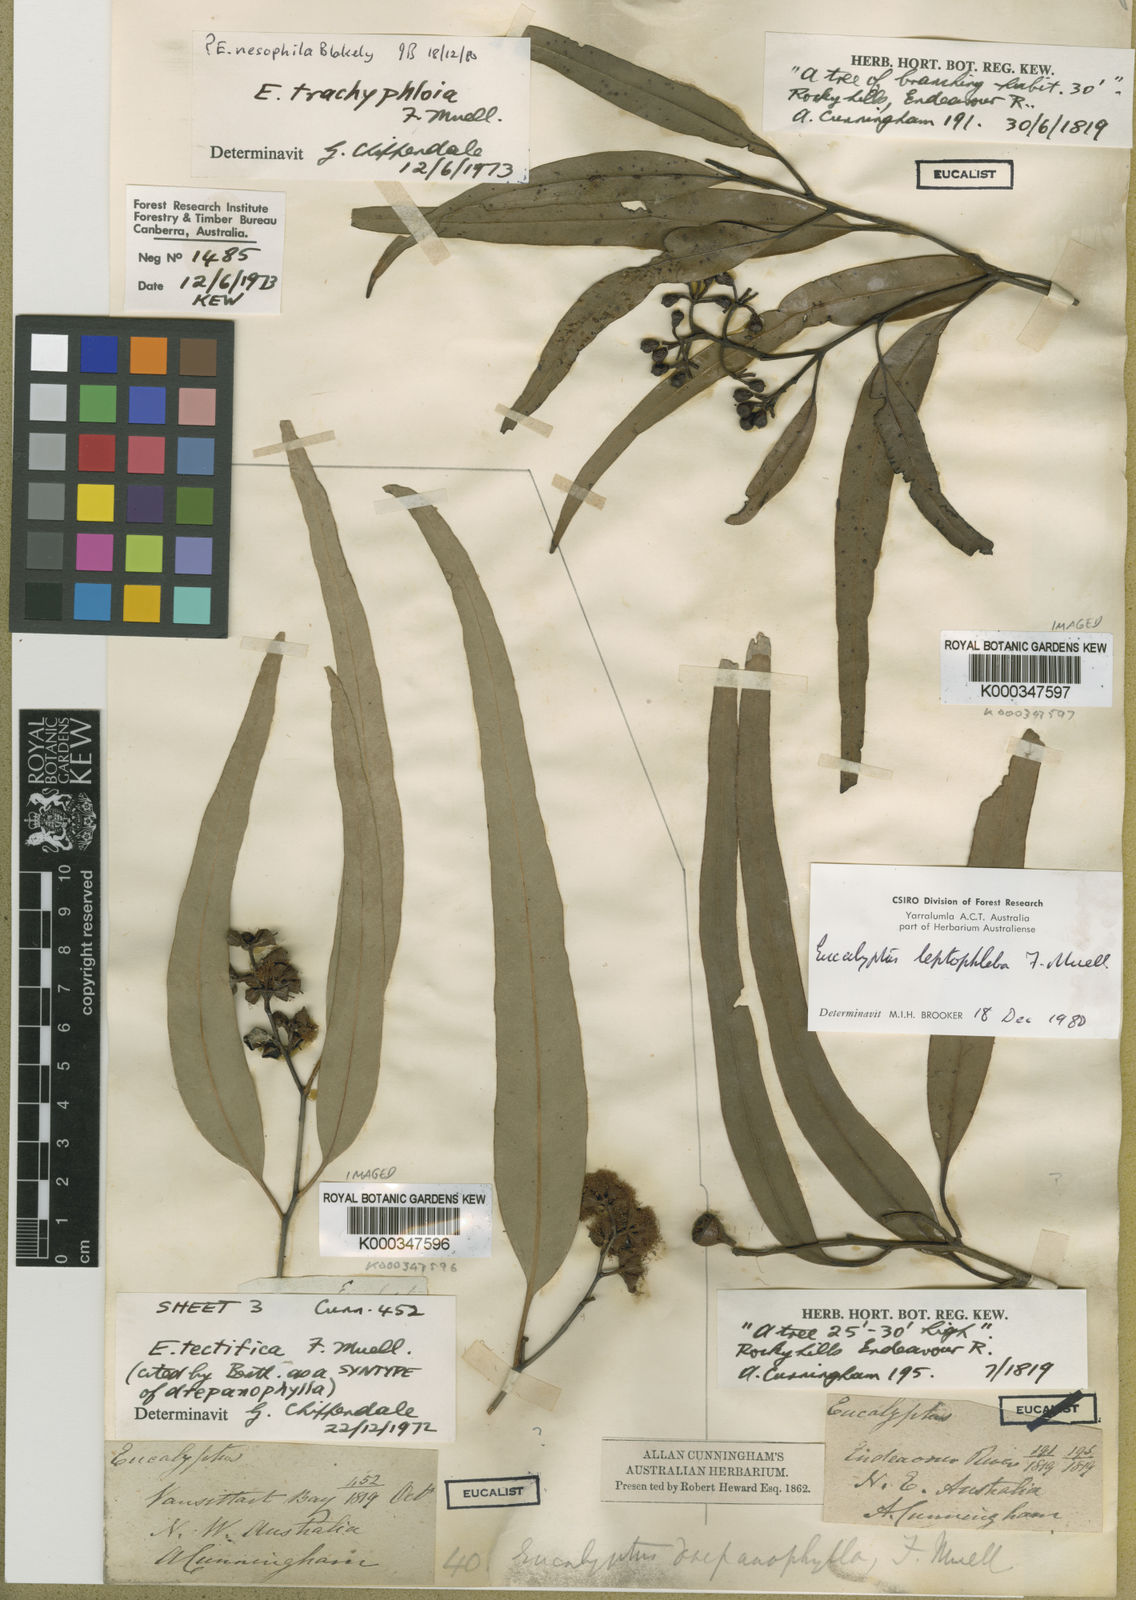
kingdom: Plantae
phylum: Tracheophyta
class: Magnoliopsida
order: Myrtales
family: Myrtaceae
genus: Eucalyptus
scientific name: Eucalyptus tectifica
